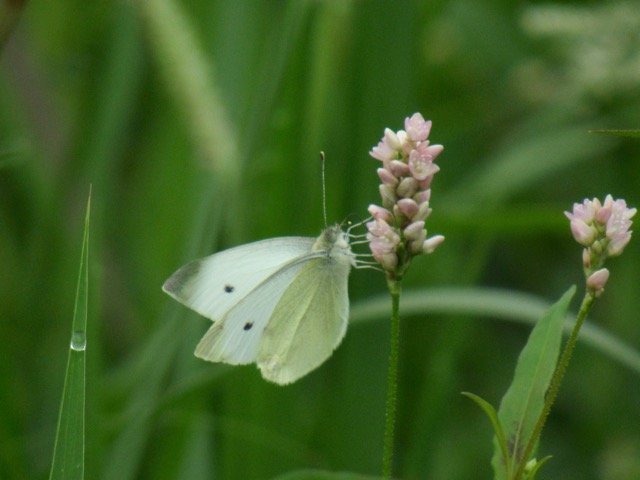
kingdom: Animalia
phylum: Arthropoda
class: Insecta
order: Lepidoptera
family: Pieridae
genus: Pieris
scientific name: Pieris rapae
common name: Cabbage White
